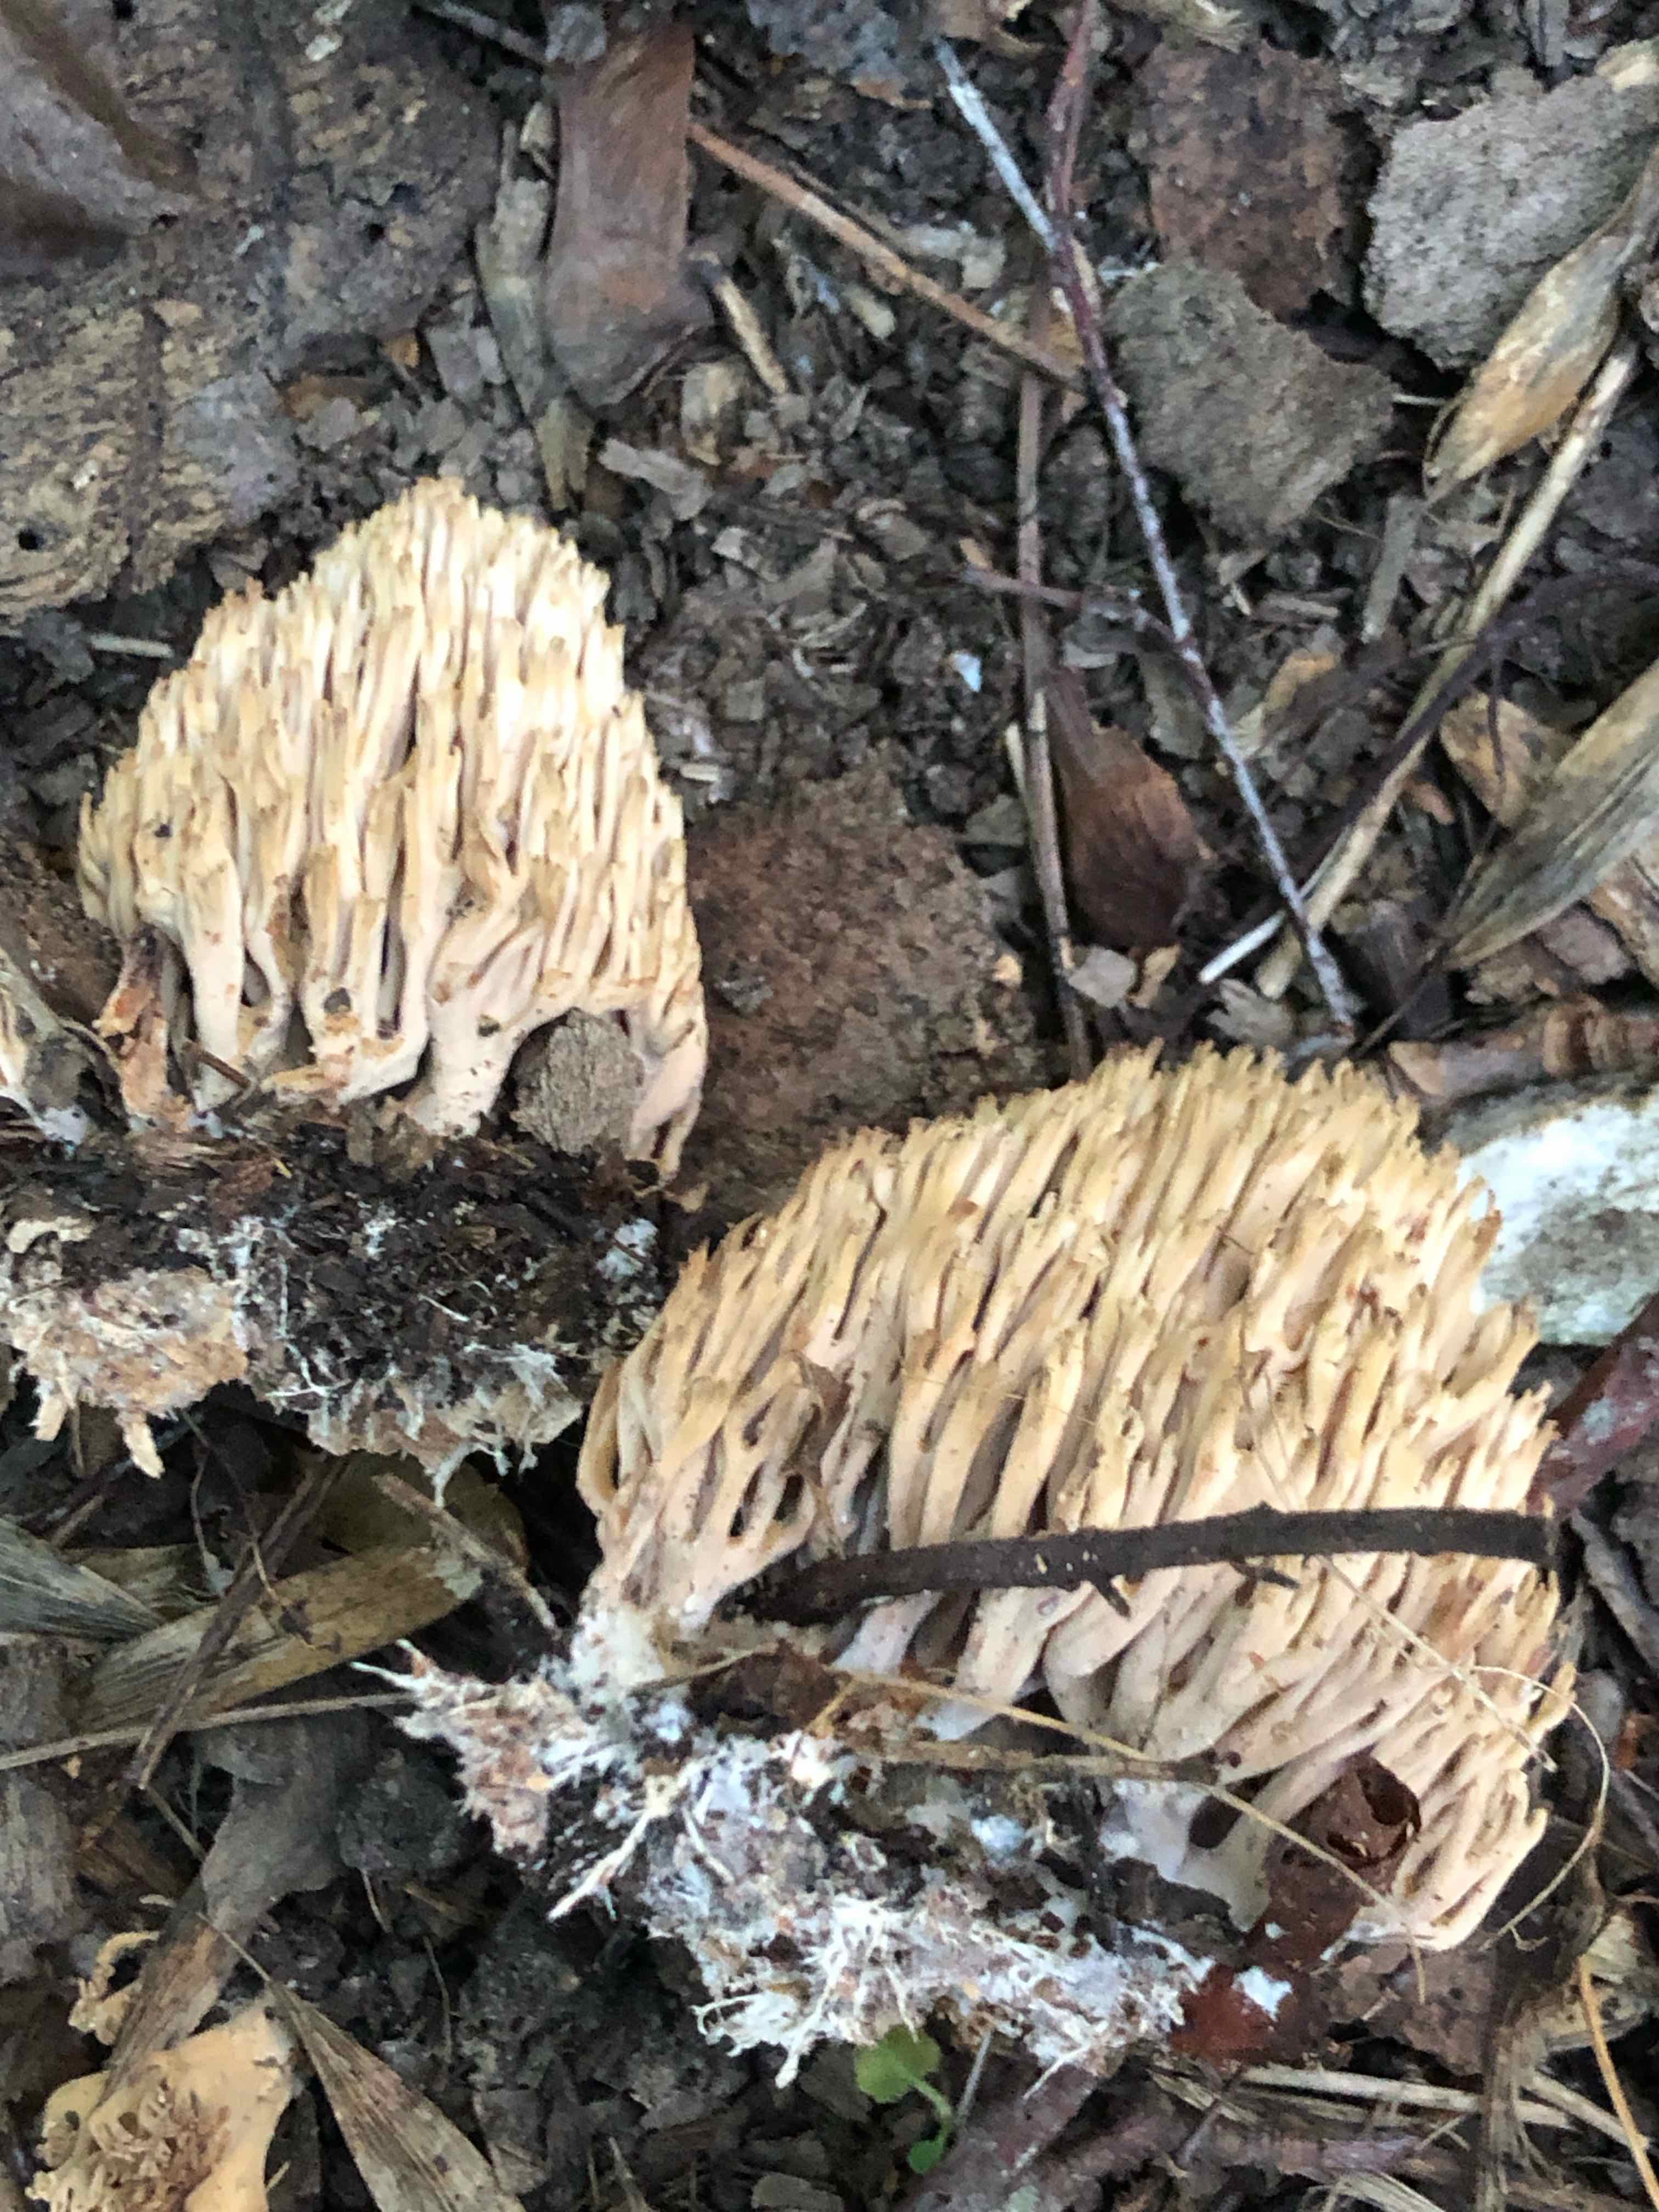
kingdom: Fungi
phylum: Basidiomycota
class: Agaricomycetes
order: Gomphales
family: Gomphaceae
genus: Ramaria
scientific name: Ramaria stricta
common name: rank koralsvamp
